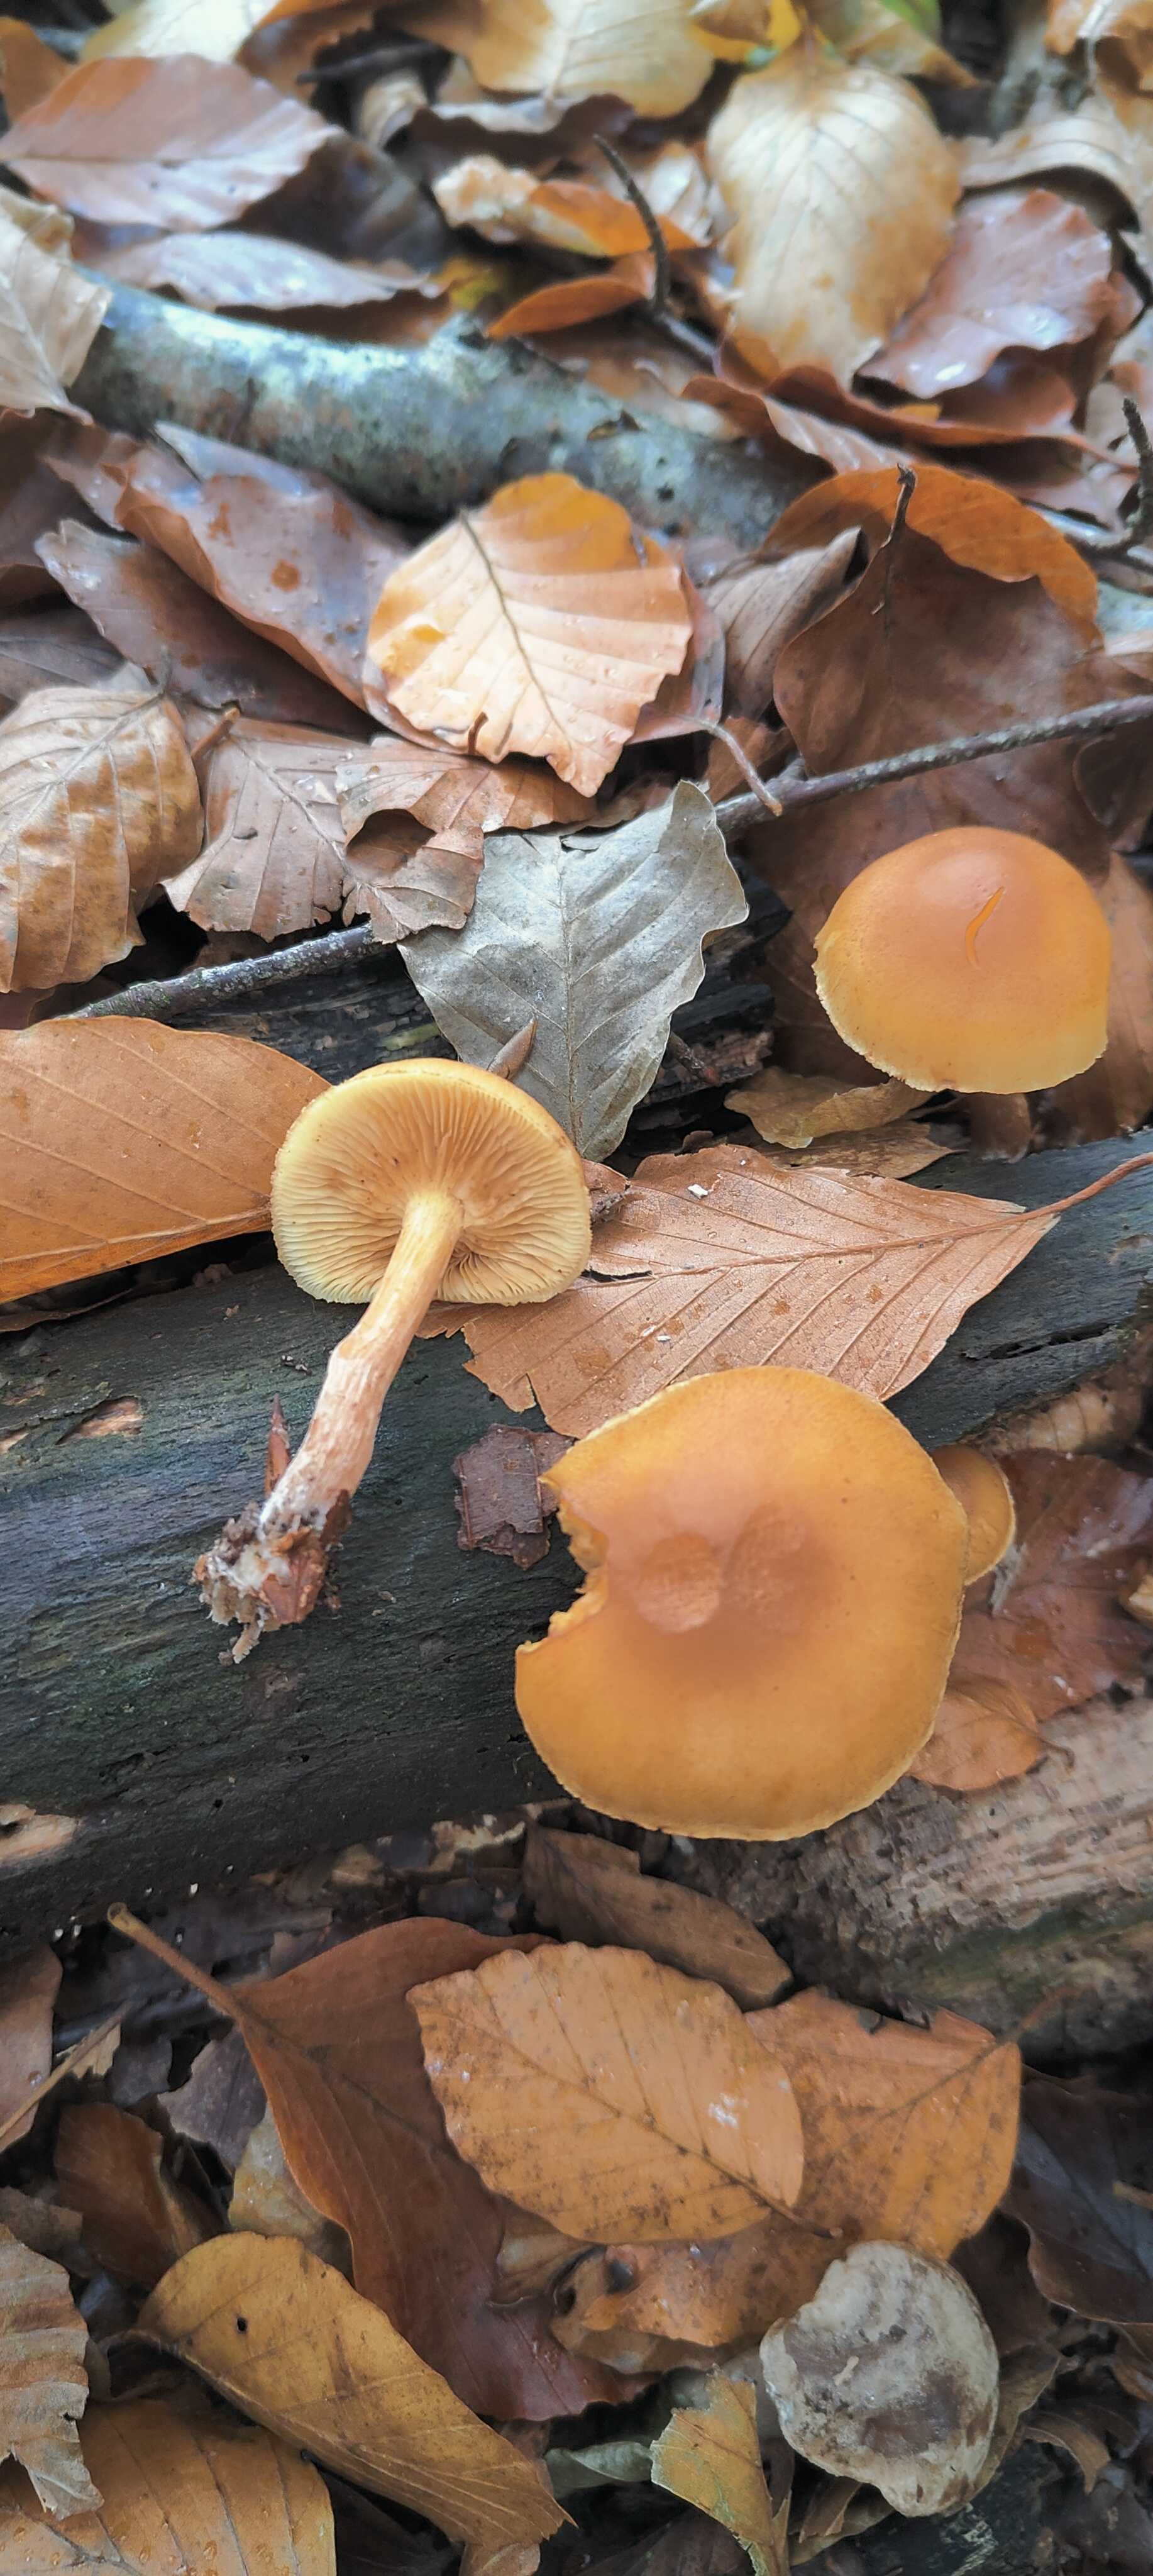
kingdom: Fungi
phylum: Basidiomycota
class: Agaricomycetes
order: Agaricales
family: Hymenogastraceae
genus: Gymnopilus
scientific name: Gymnopilus penetrans
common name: plettet flammehat
